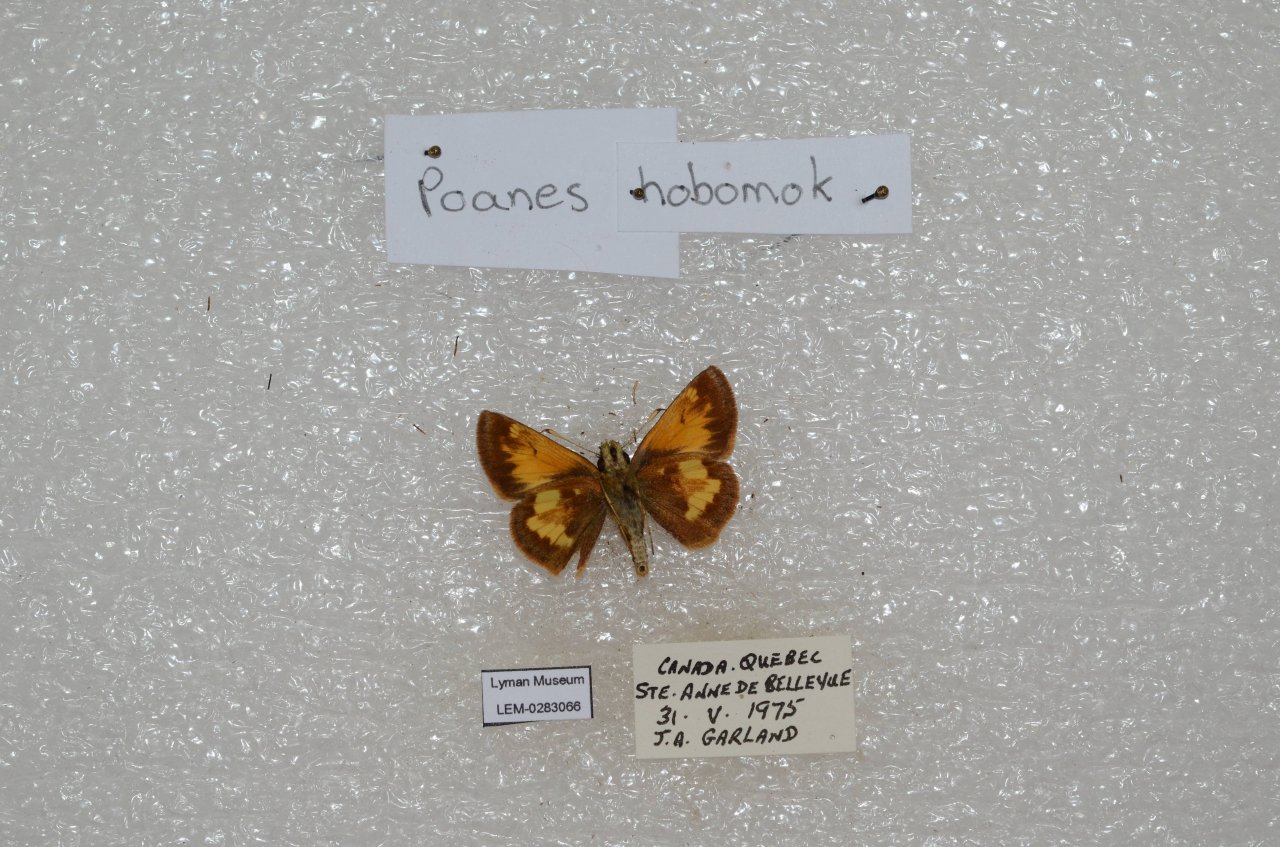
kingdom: Animalia
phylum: Arthropoda
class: Insecta
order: Lepidoptera
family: Hesperiidae
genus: Lon
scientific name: Lon hobomok
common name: Hobomok Skipper
